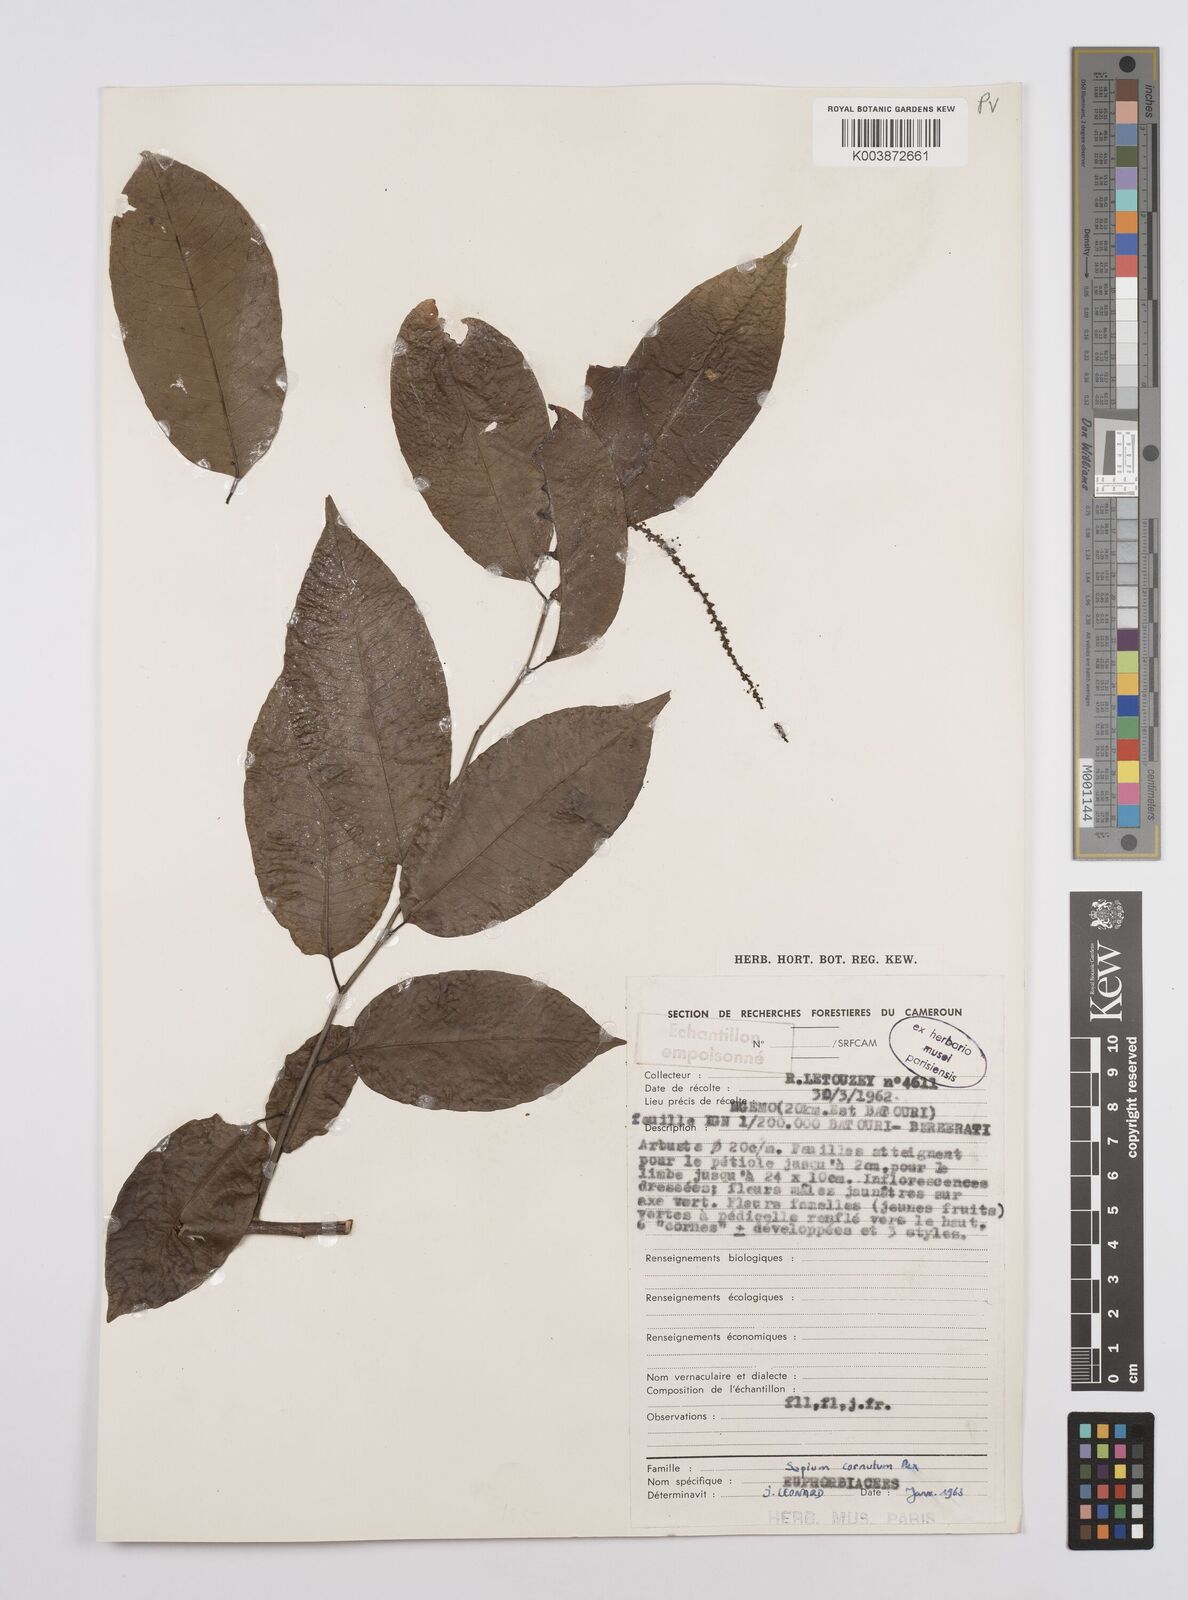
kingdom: Plantae
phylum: Tracheophyta
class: Magnoliopsida
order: Malpighiales
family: Euphorbiaceae
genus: Sclerocroton
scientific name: Sclerocroton cornutus
